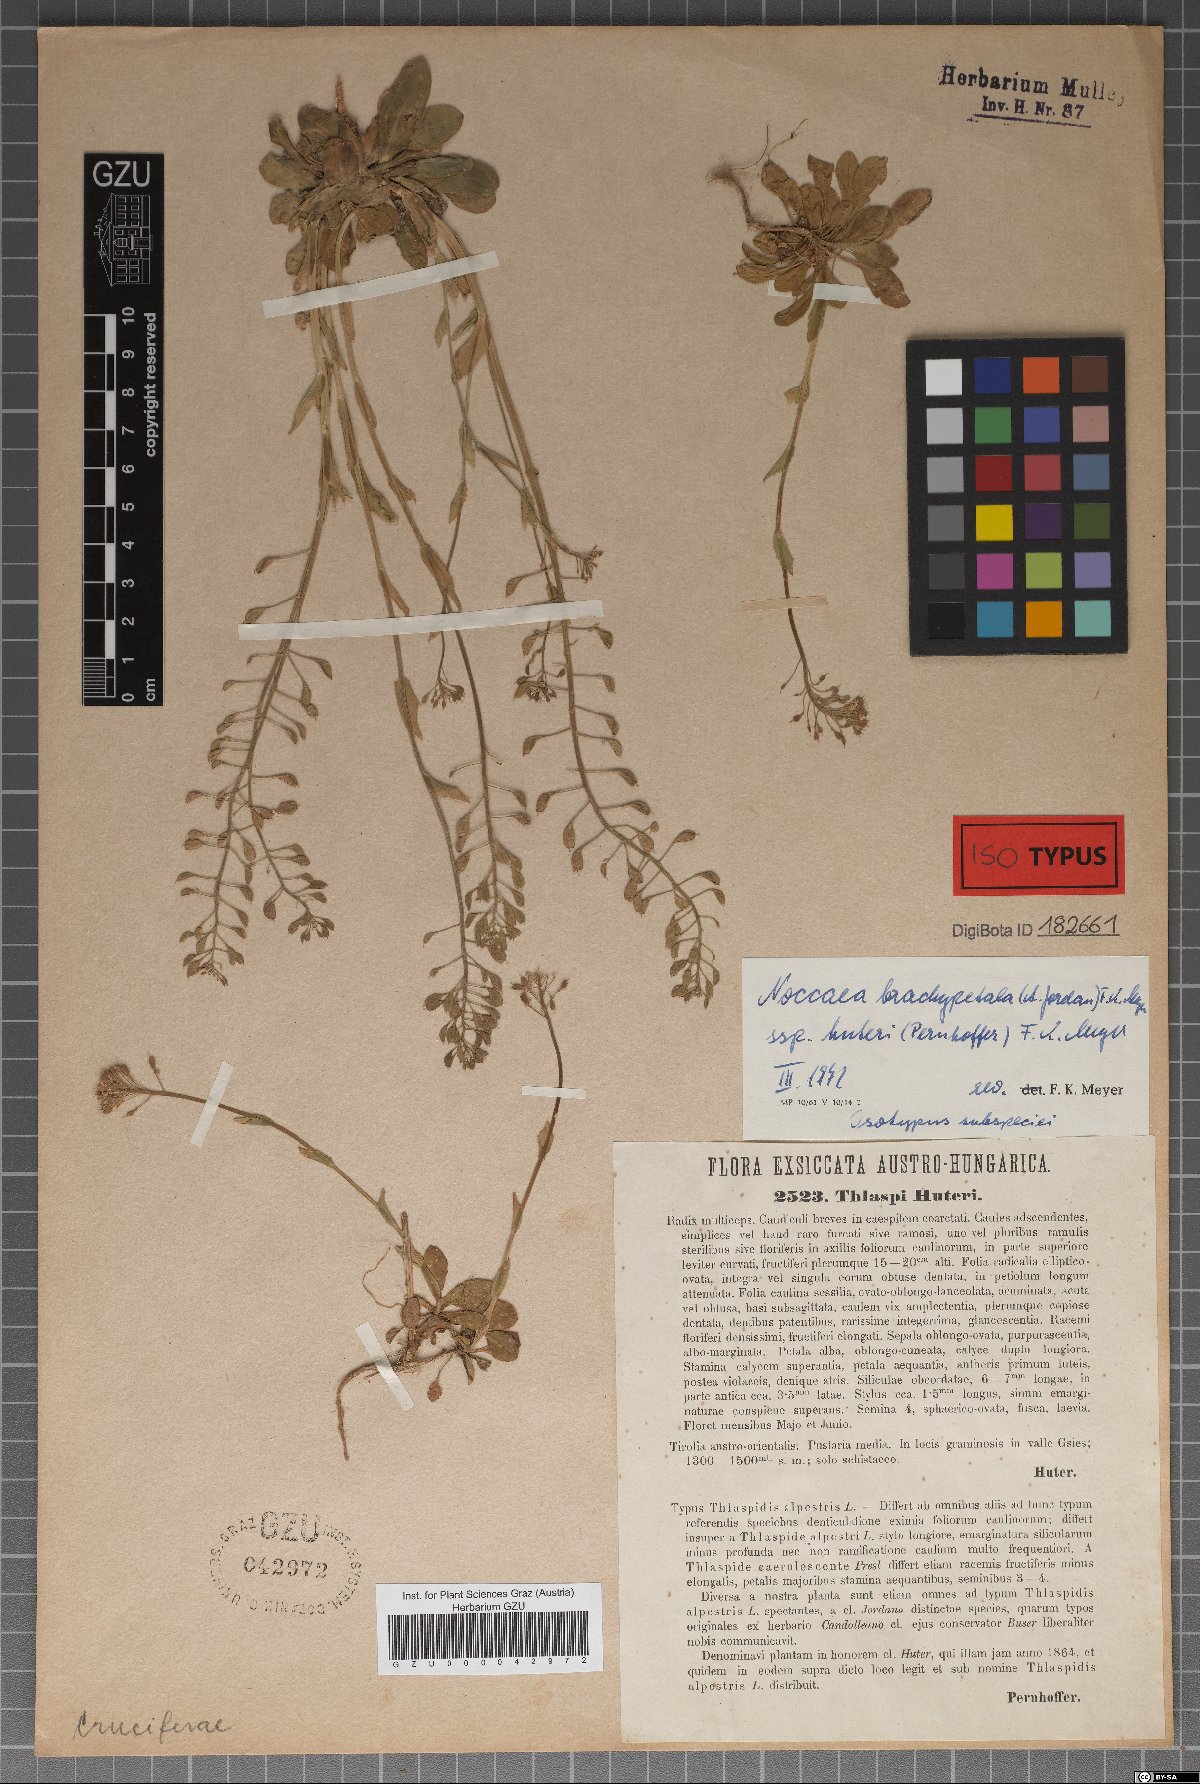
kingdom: Plantae
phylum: Tracheophyta
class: Magnoliopsida
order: Brassicales
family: Brassicaceae
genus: Noccaea
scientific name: Noccaea brachypetala
